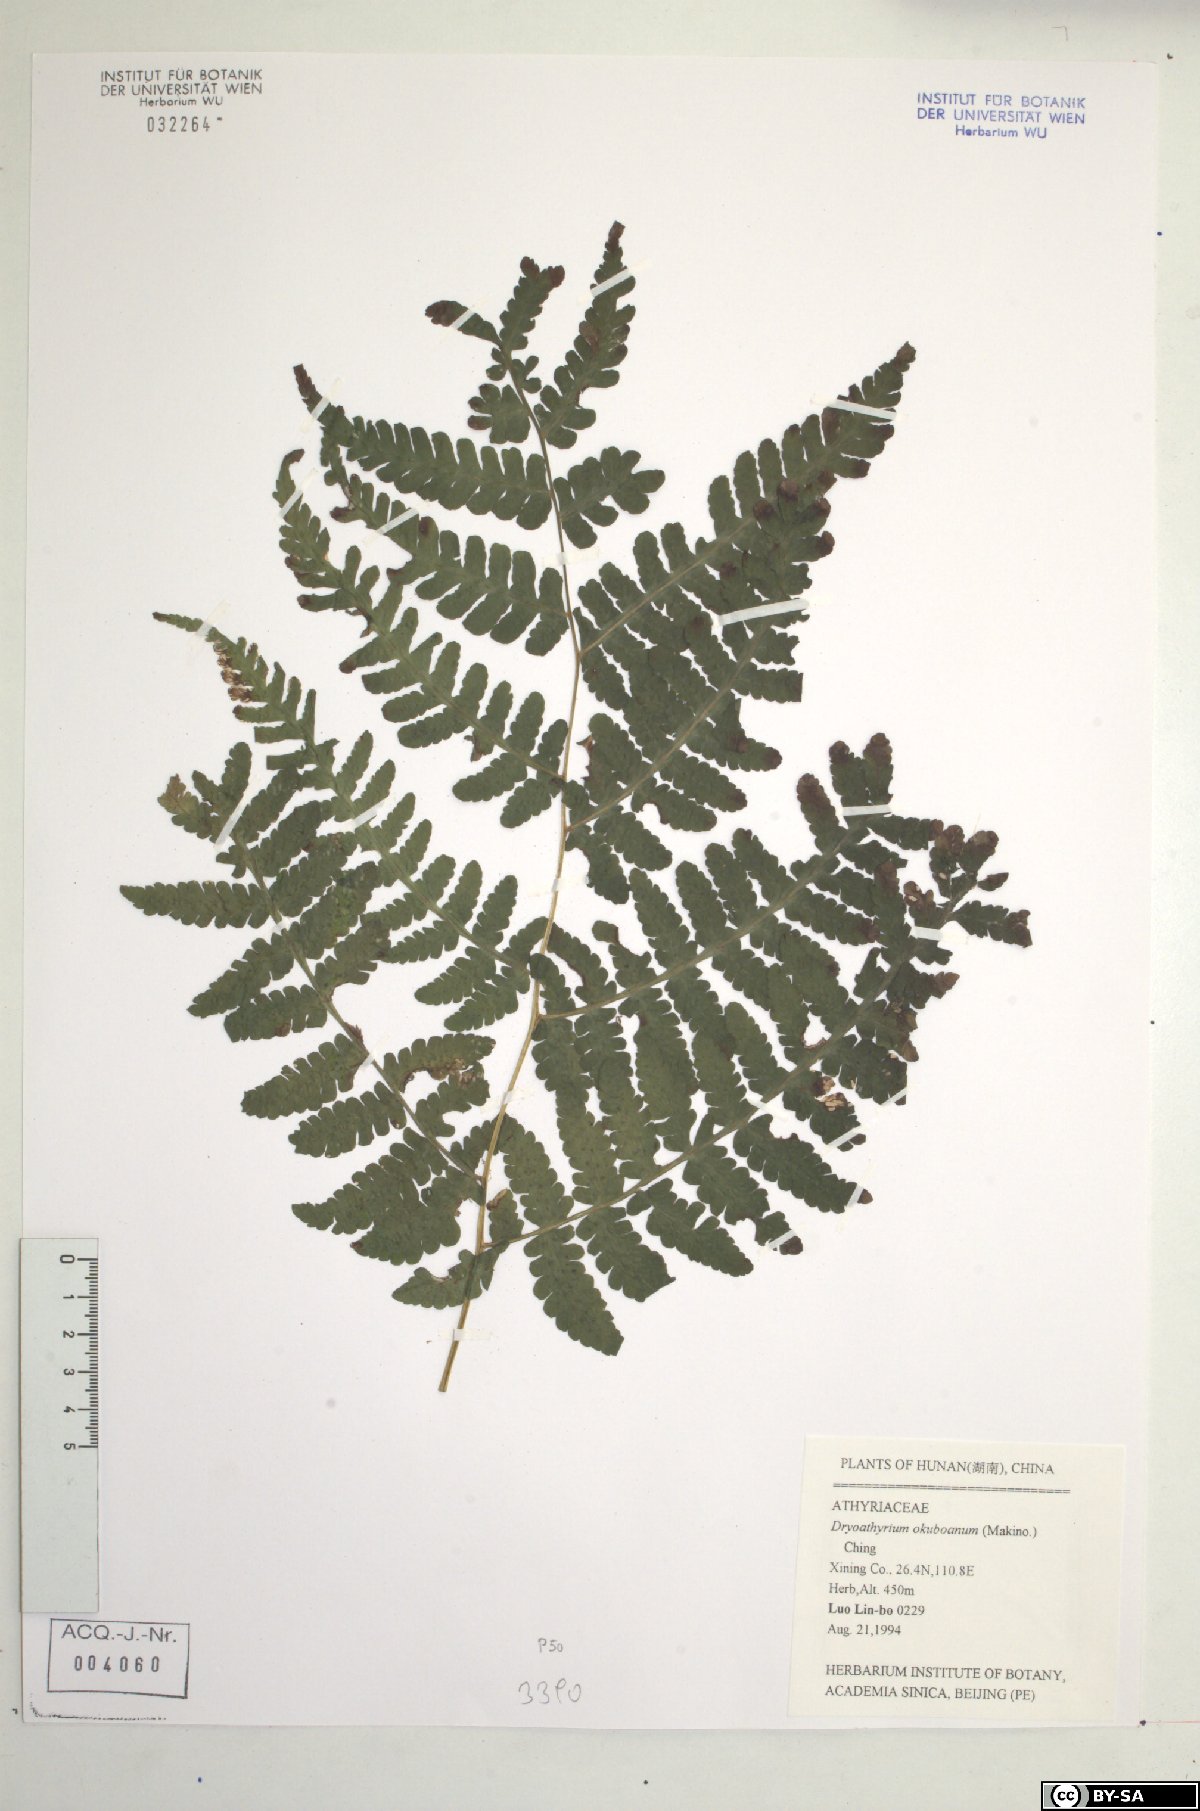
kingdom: Plantae
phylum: Tracheophyta
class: Polypodiopsida
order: Polypodiales
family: Athyriaceae
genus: Deparia
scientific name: Deparia okuboana
